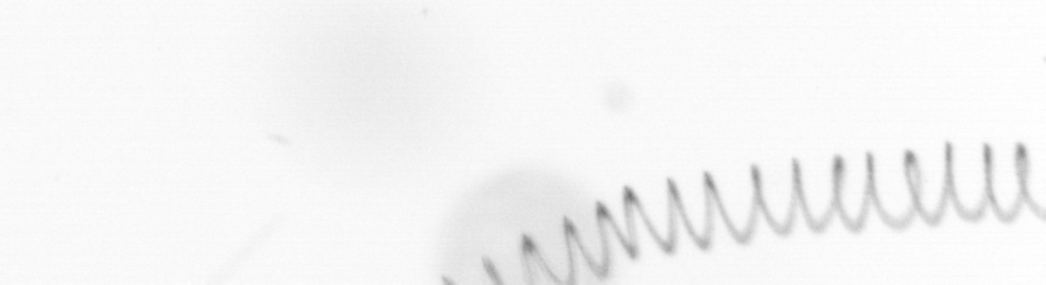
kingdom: Chromista
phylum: Ochrophyta
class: Bacillariophyceae
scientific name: Bacillariophyceae
